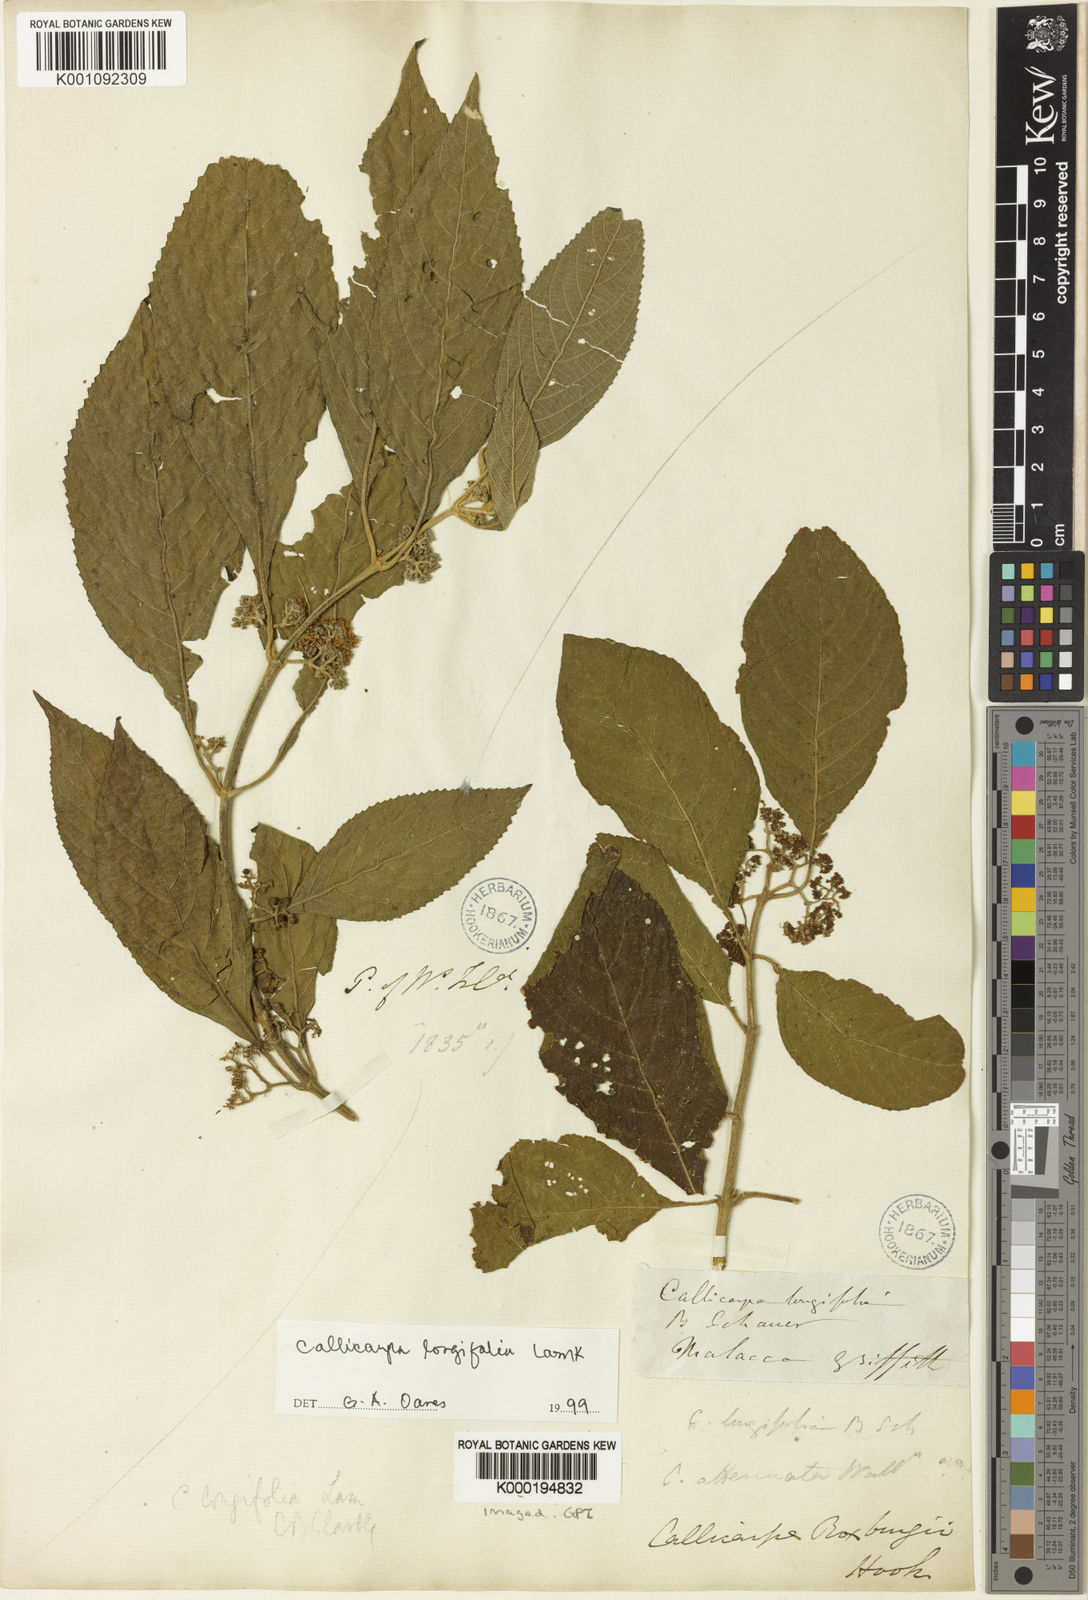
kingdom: Plantae
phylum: Tracheophyta
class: Magnoliopsida
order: Lamiales
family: Lamiaceae
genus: Callicarpa
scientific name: Callicarpa longifolia
